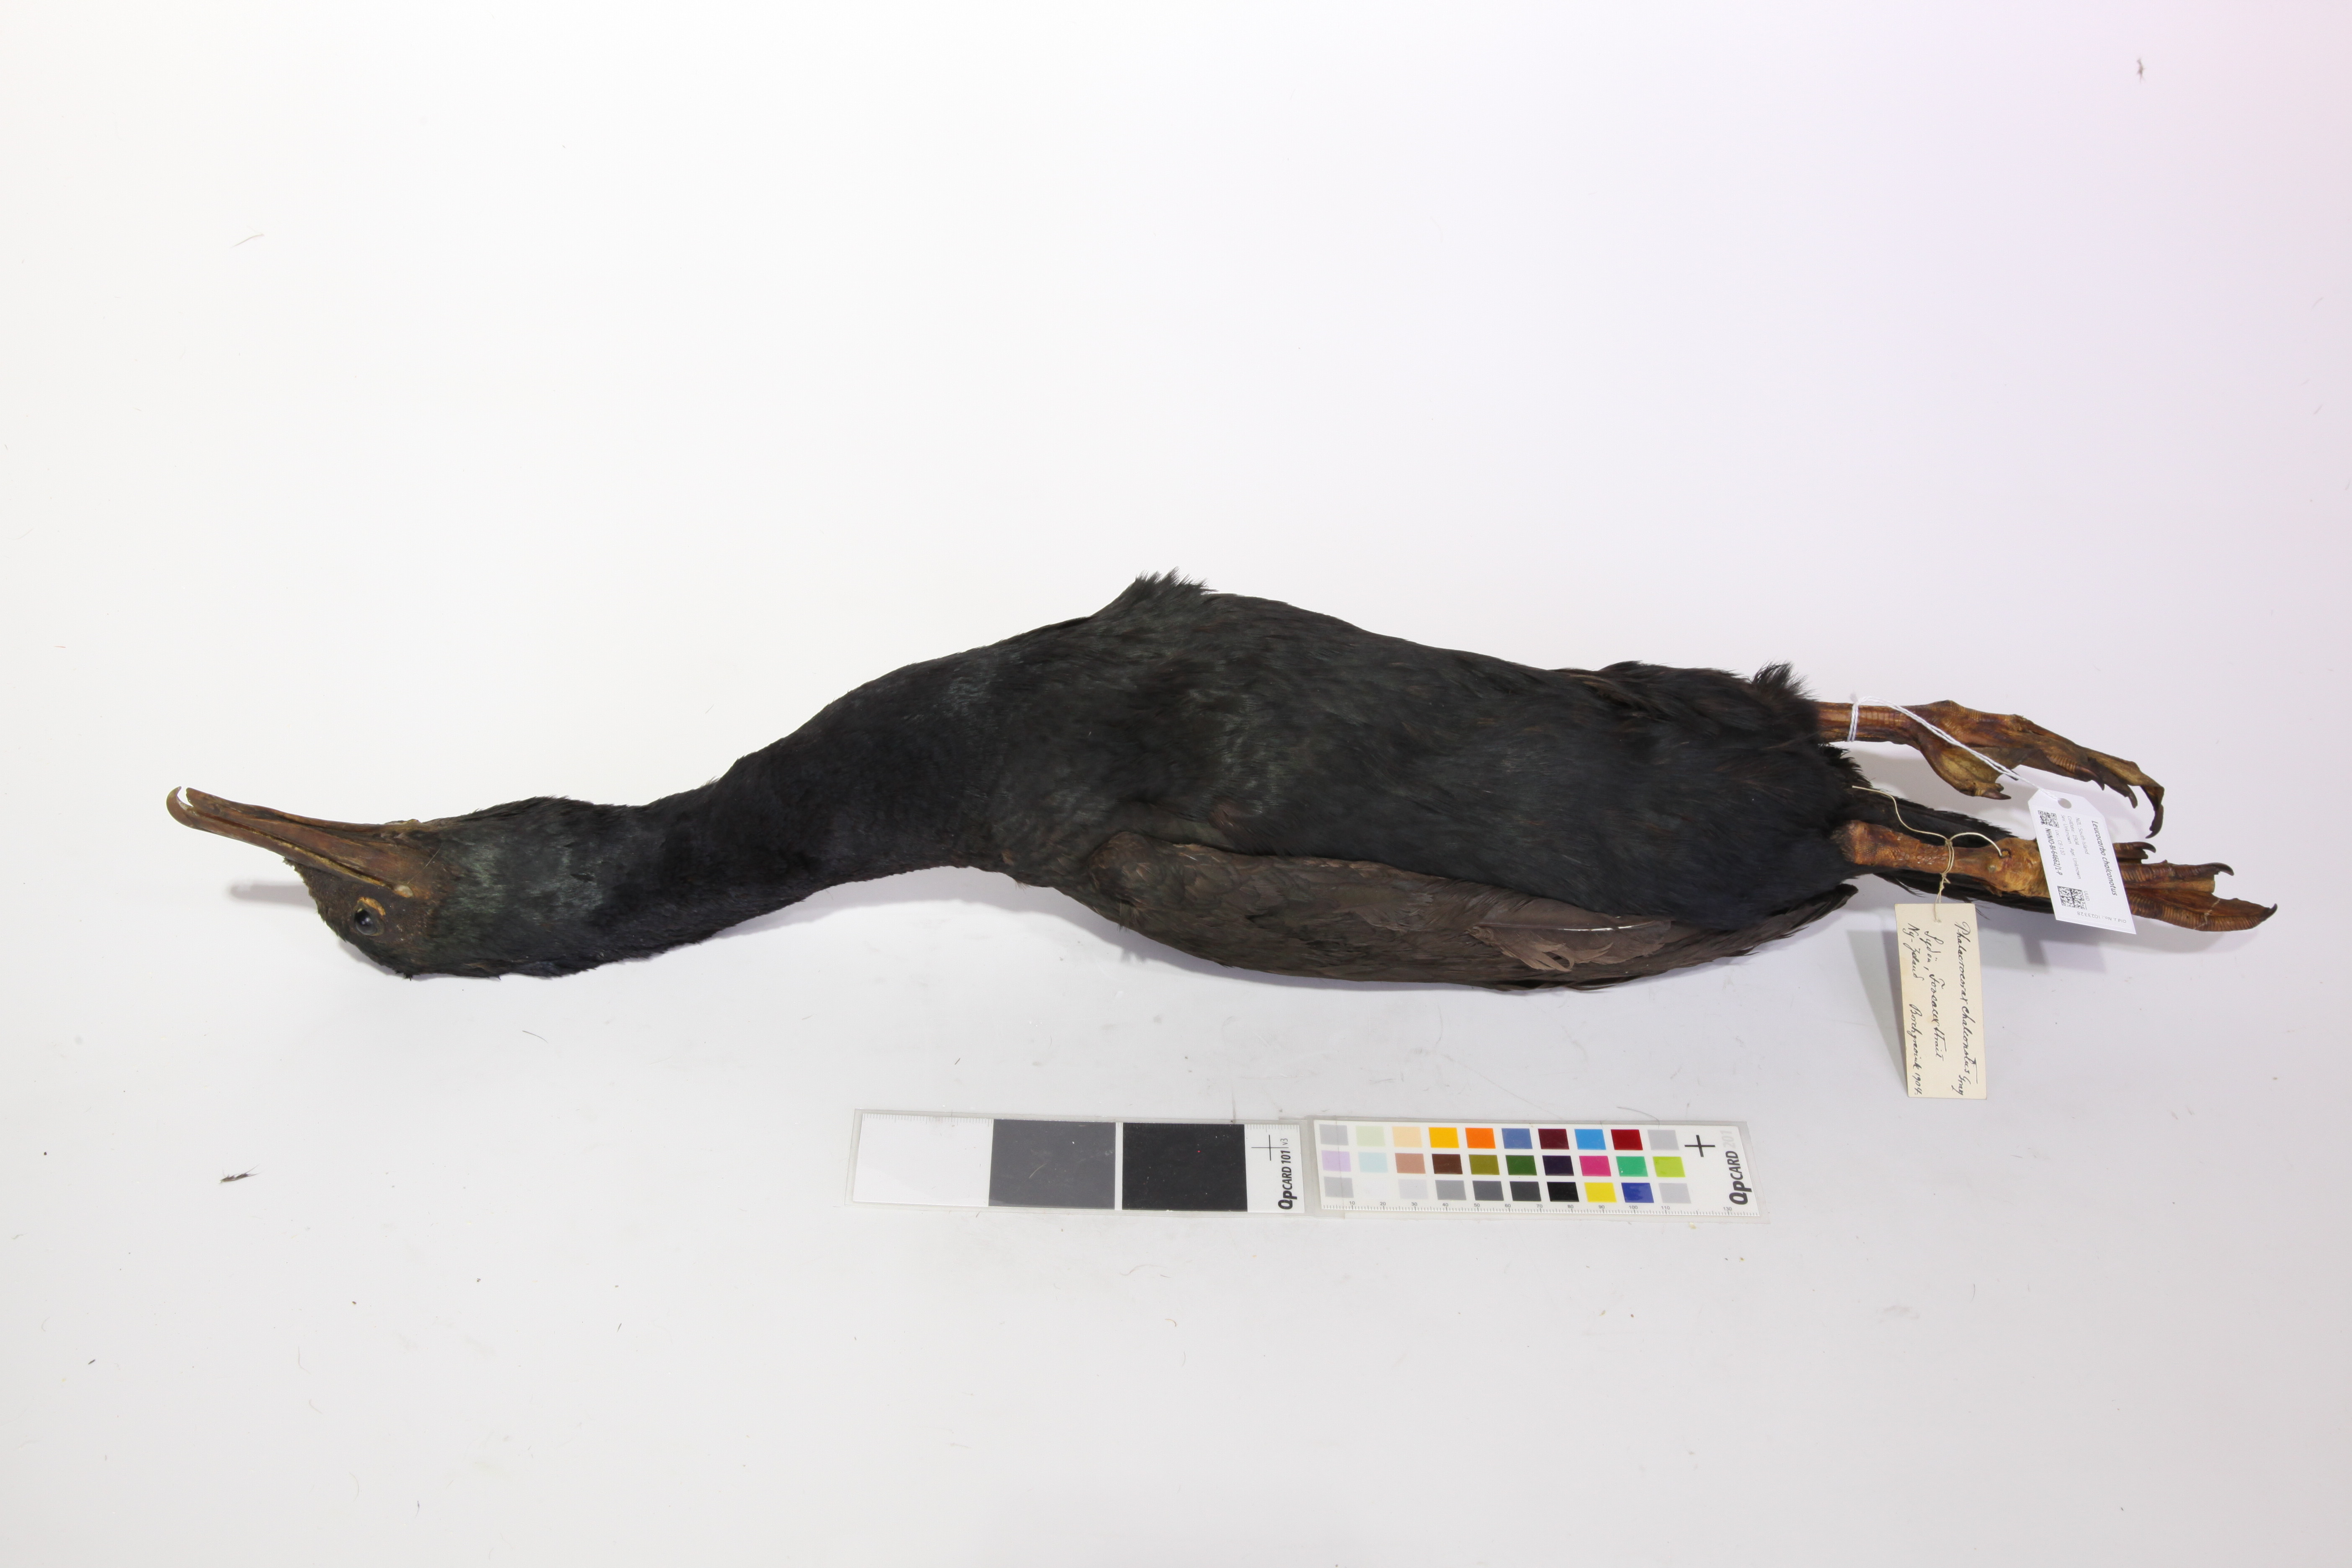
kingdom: Animalia
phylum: Chordata
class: Aves
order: Suliformes
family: Phalacrocoracidae
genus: Leucocarbo
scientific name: Leucocarbo chalconotus
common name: Stewart shag
